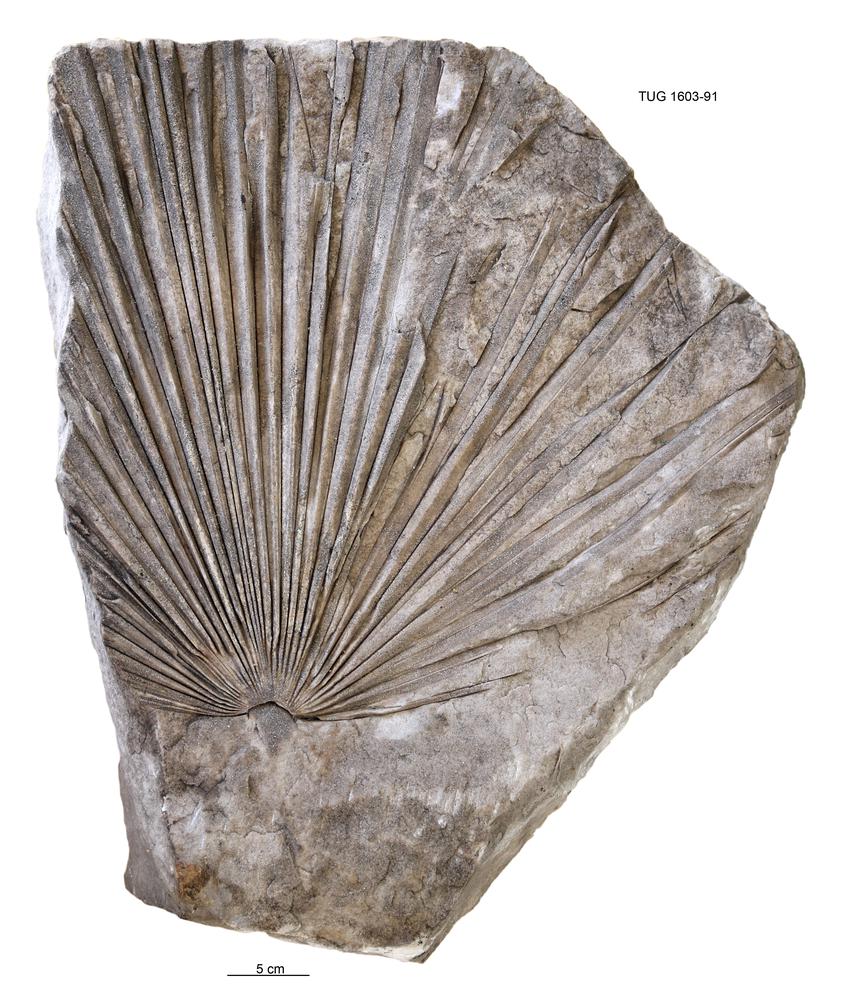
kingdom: Plantae
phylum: Tracheophyta
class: Liliopsida
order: Arecales
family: Arecaceae
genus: Sabalites
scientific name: Sabalites
